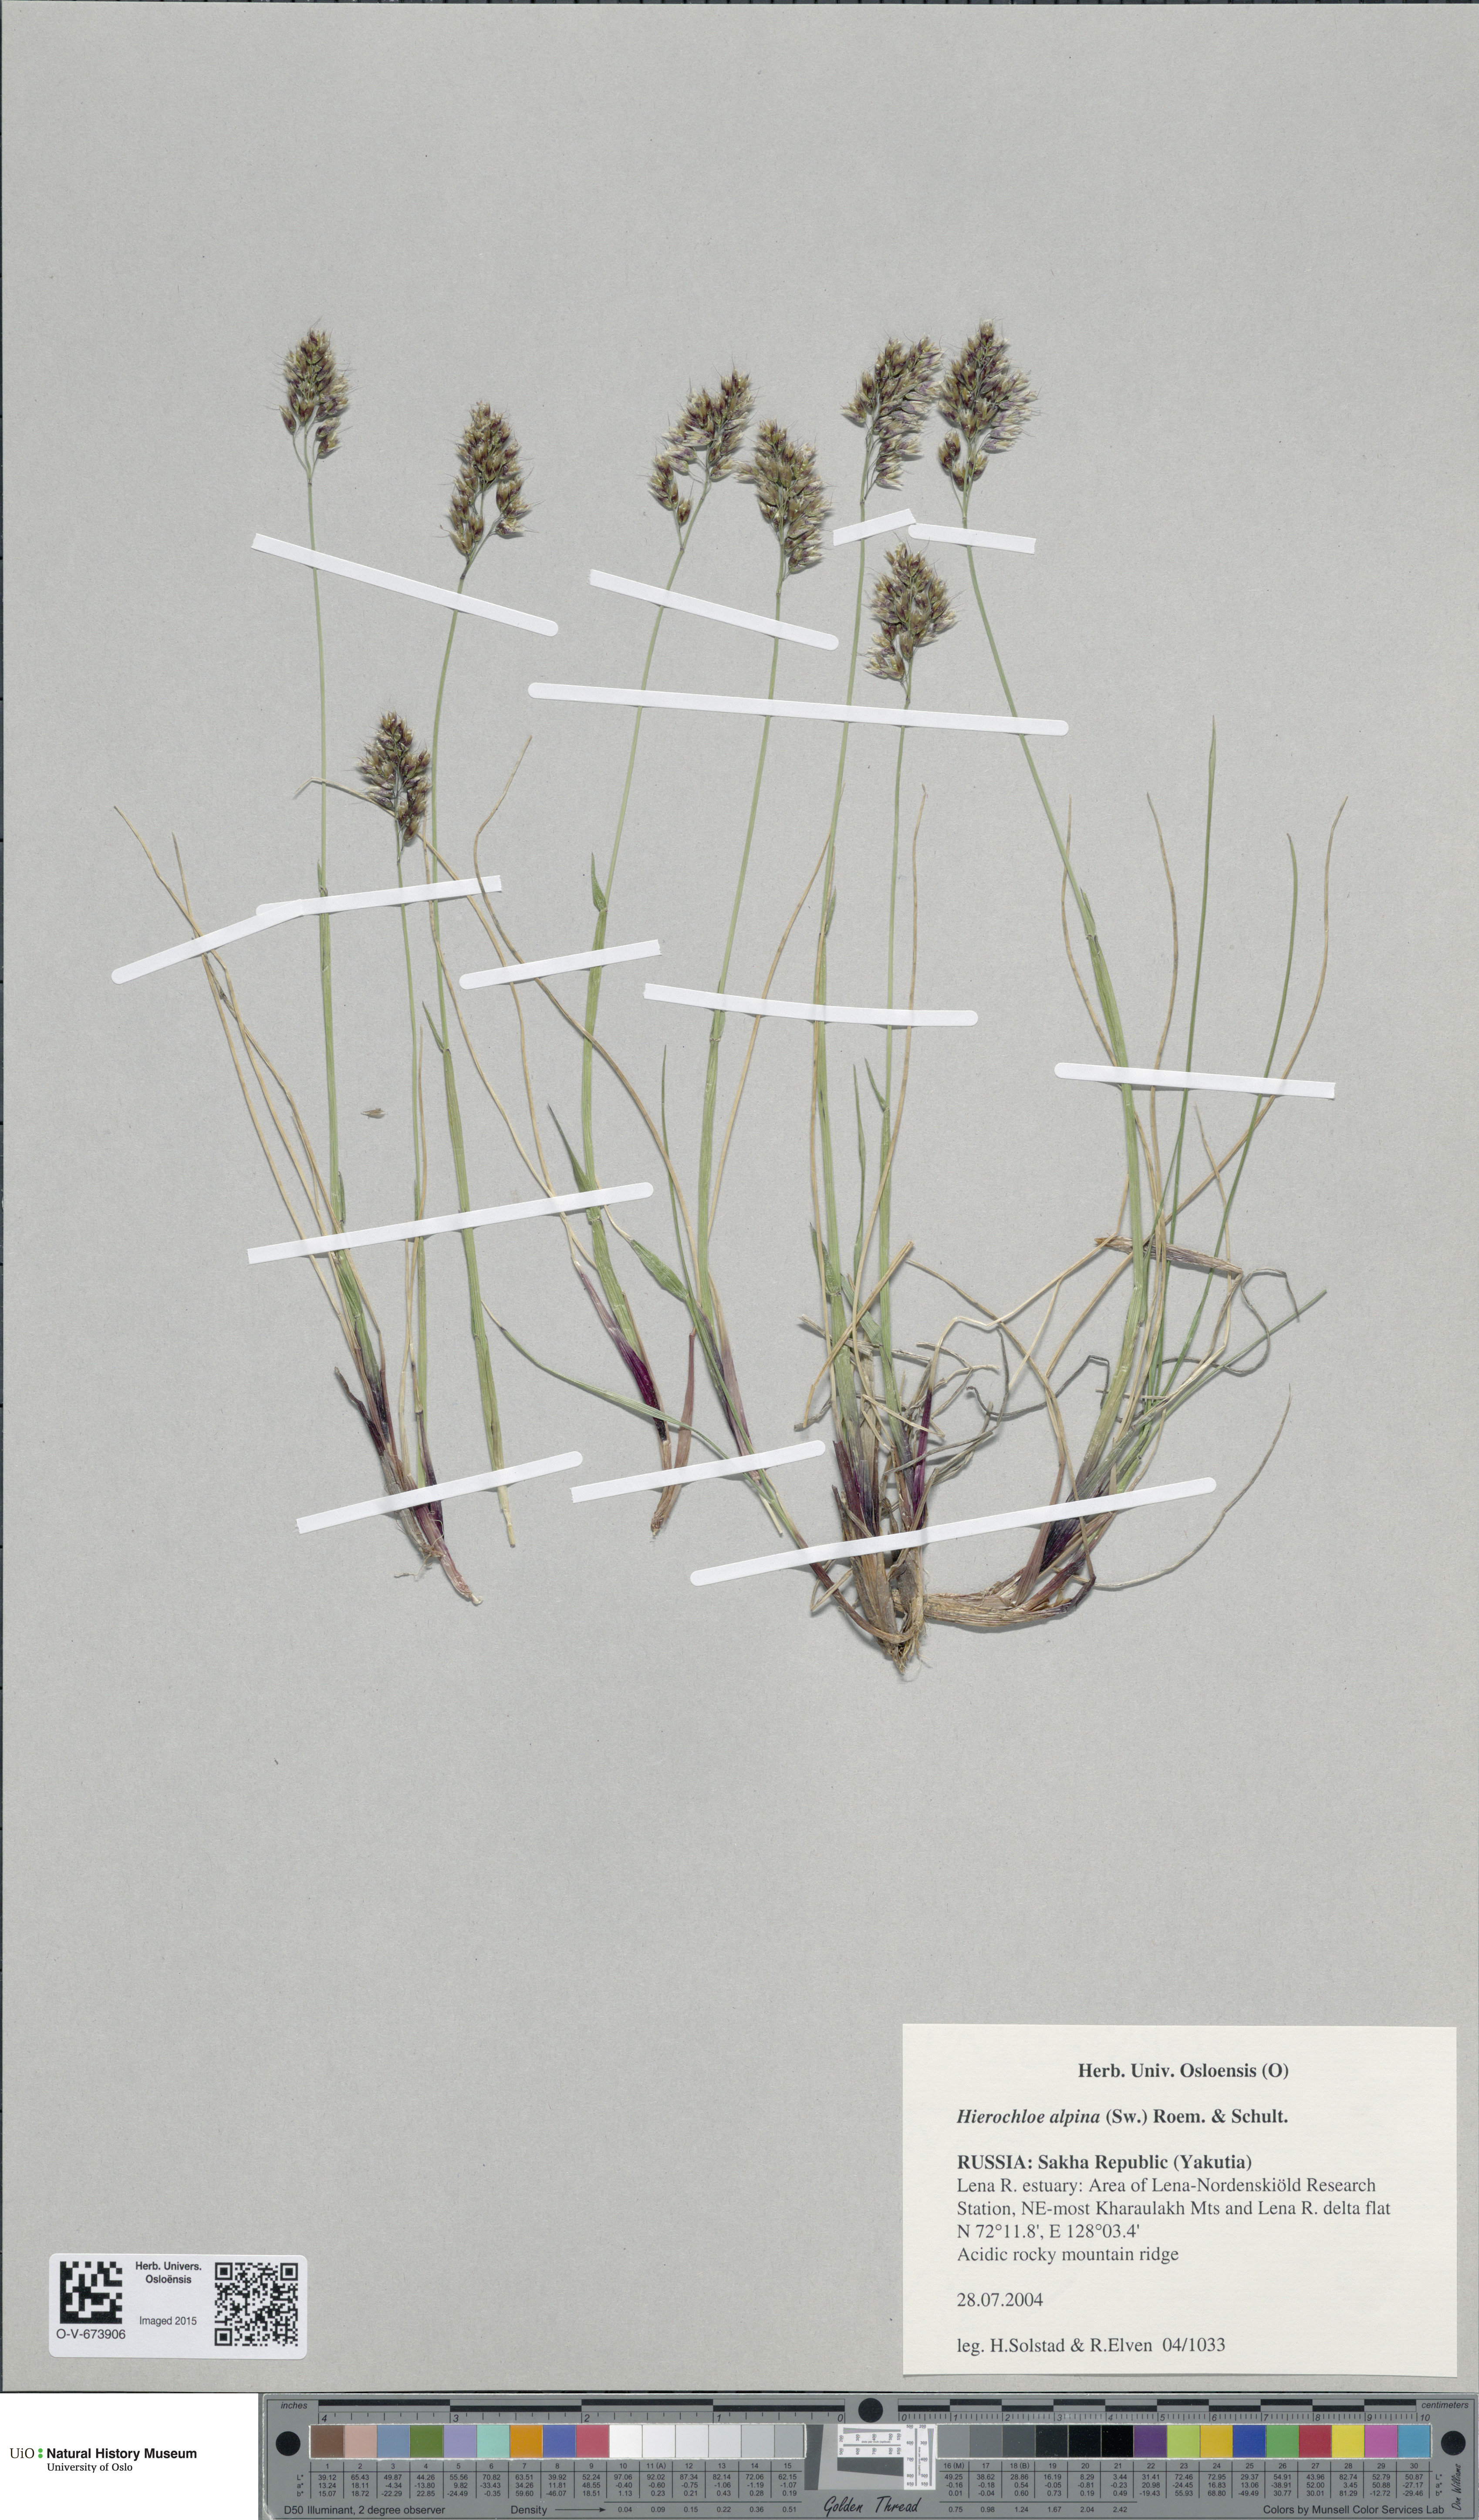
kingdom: Plantae
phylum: Tracheophyta
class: Liliopsida
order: Poales
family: Poaceae
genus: Anthoxanthum
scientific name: Anthoxanthum monticola
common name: Alpine sweetgrass
